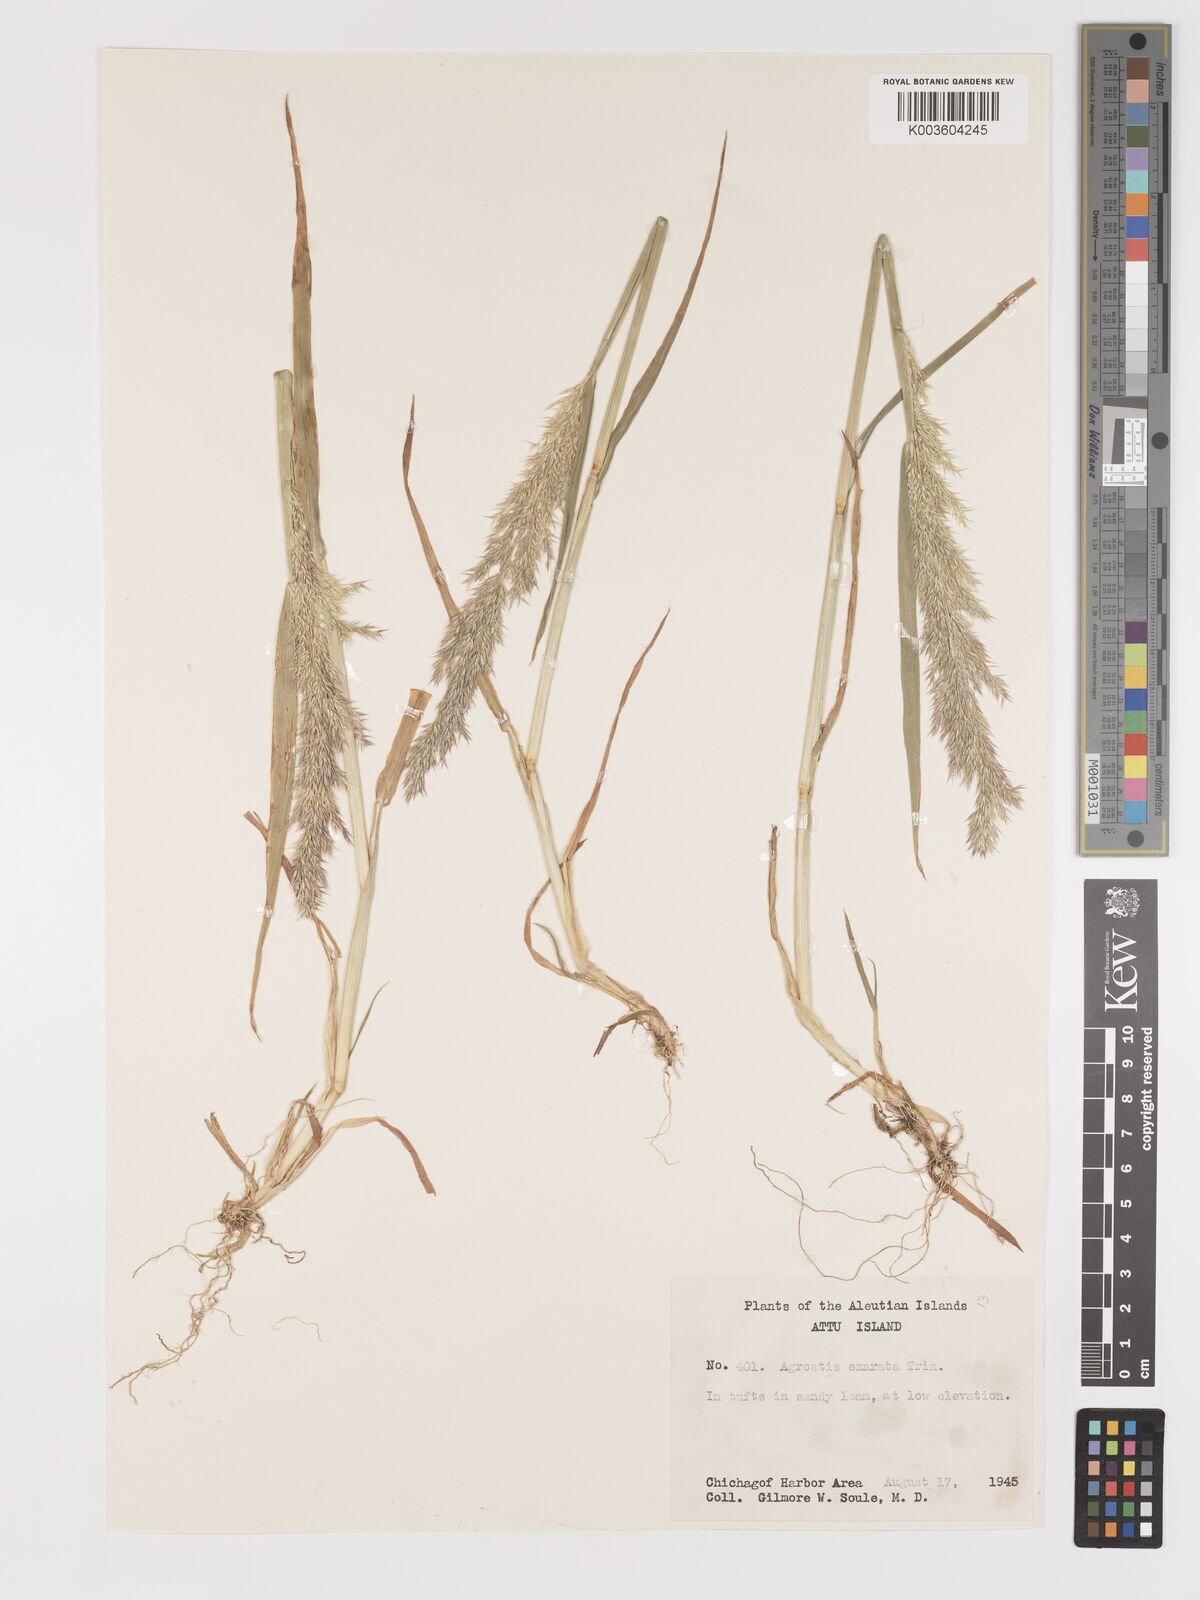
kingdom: Plantae
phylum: Tracheophyta
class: Liliopsida
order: Poales
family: Poaceae
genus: Agrostis
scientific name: Agrostis exarata
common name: Spike bent
